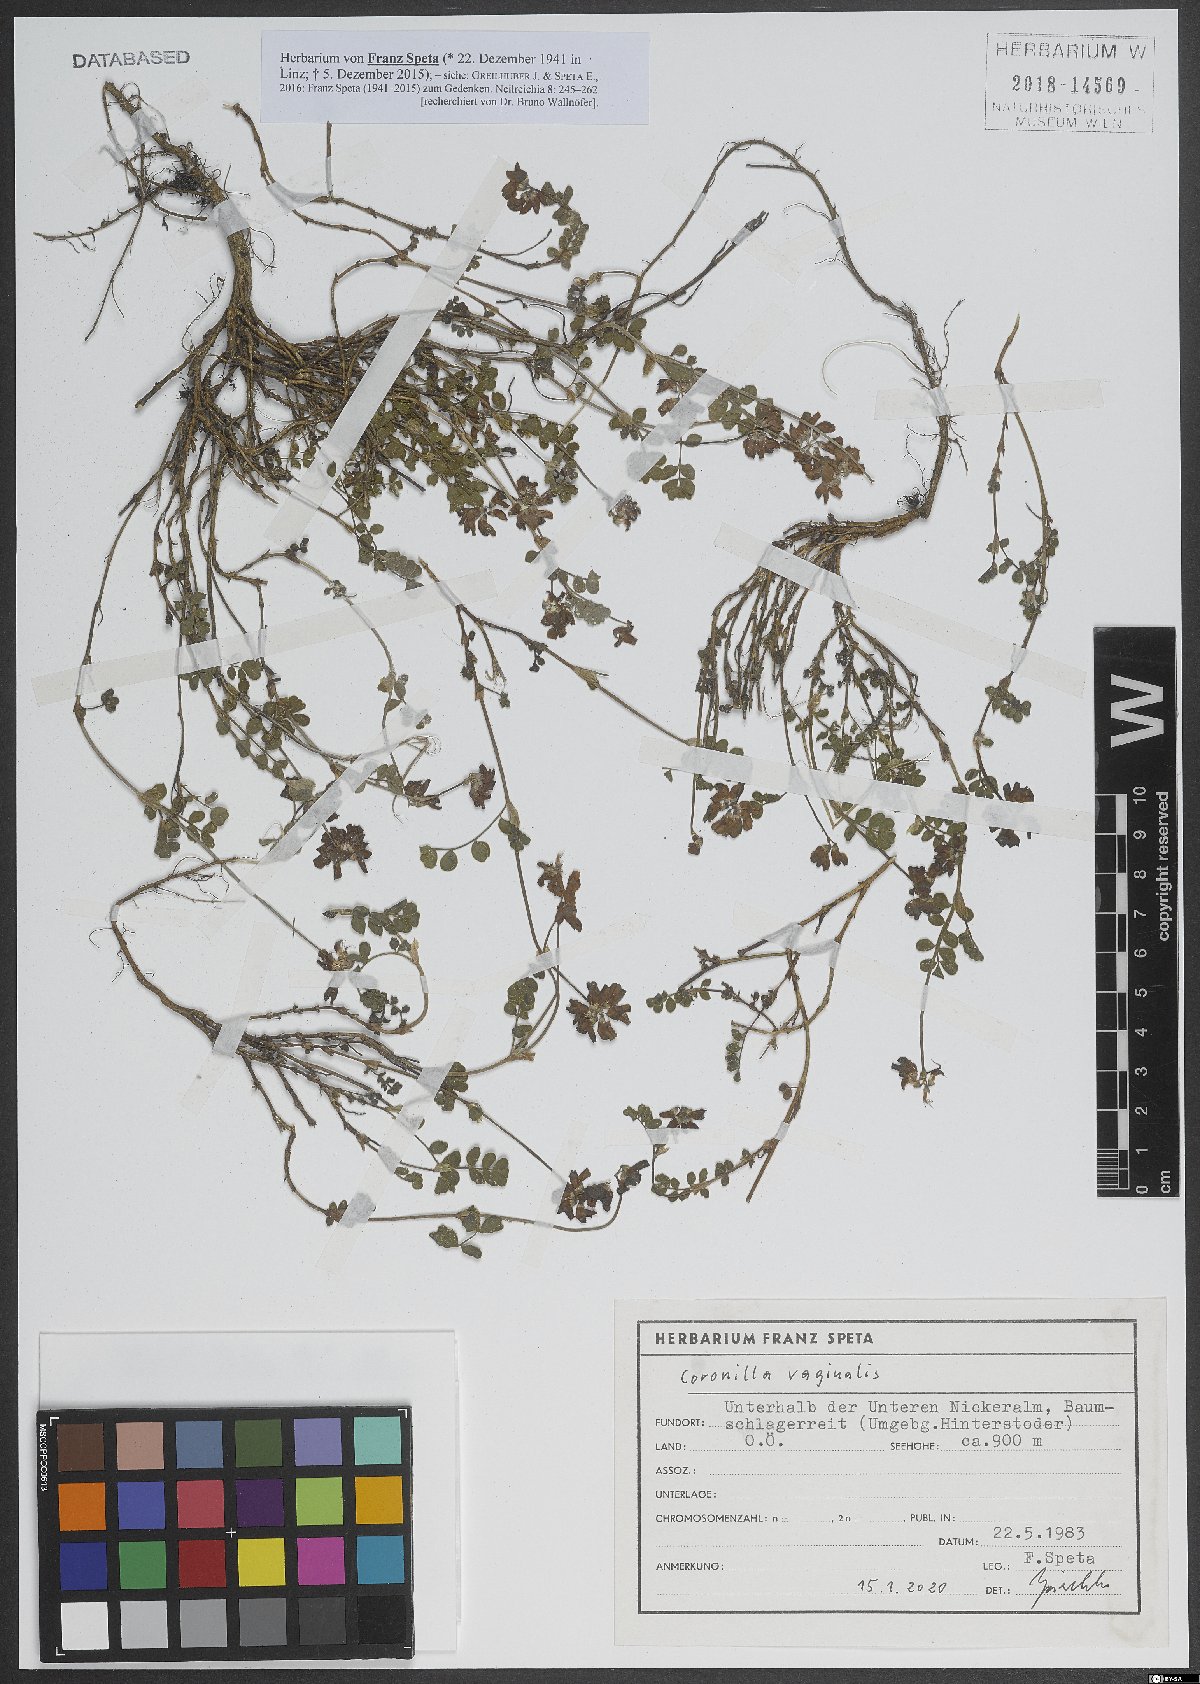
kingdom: Plantae
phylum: Tracheophyta
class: Magnoliopsida
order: Fabales
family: Fabaceae
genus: Coronilla
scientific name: Coronilla vaginalis
